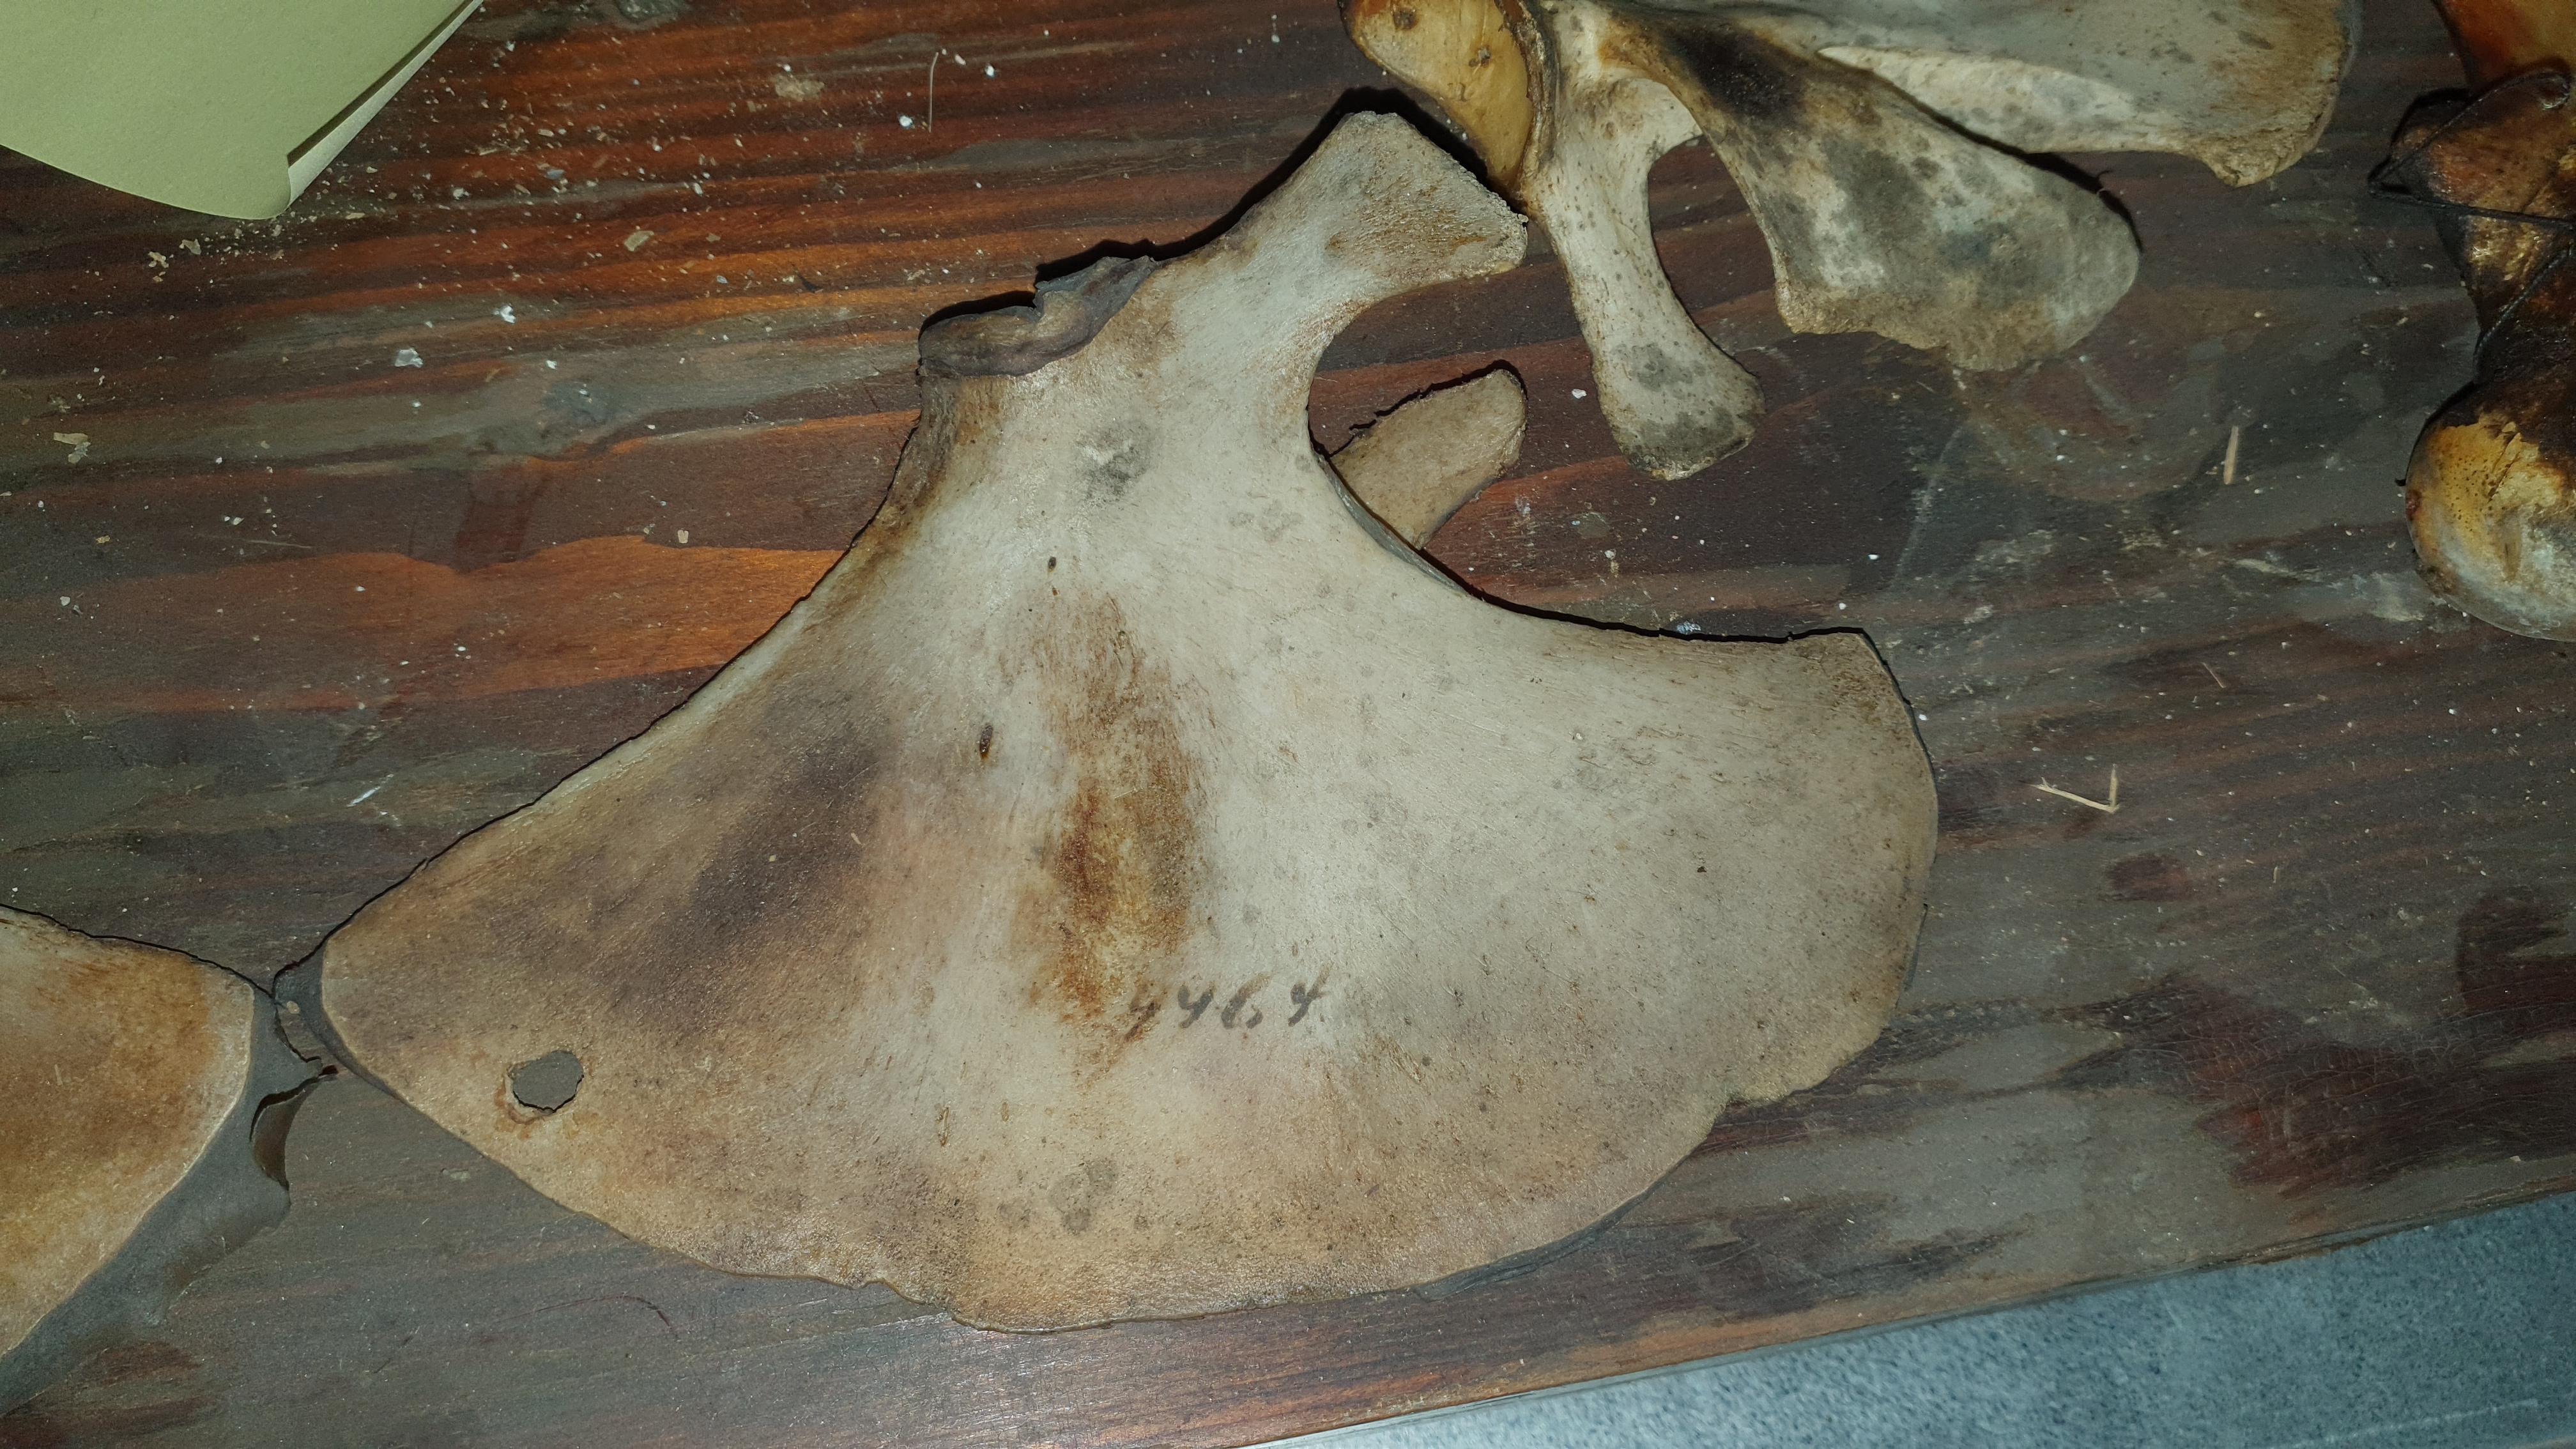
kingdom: Animalia
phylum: Chordata
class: Mammalia
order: Cetacea
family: Delphinidae
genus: Delphinus
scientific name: Delphinus delphis
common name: Common dolphin
